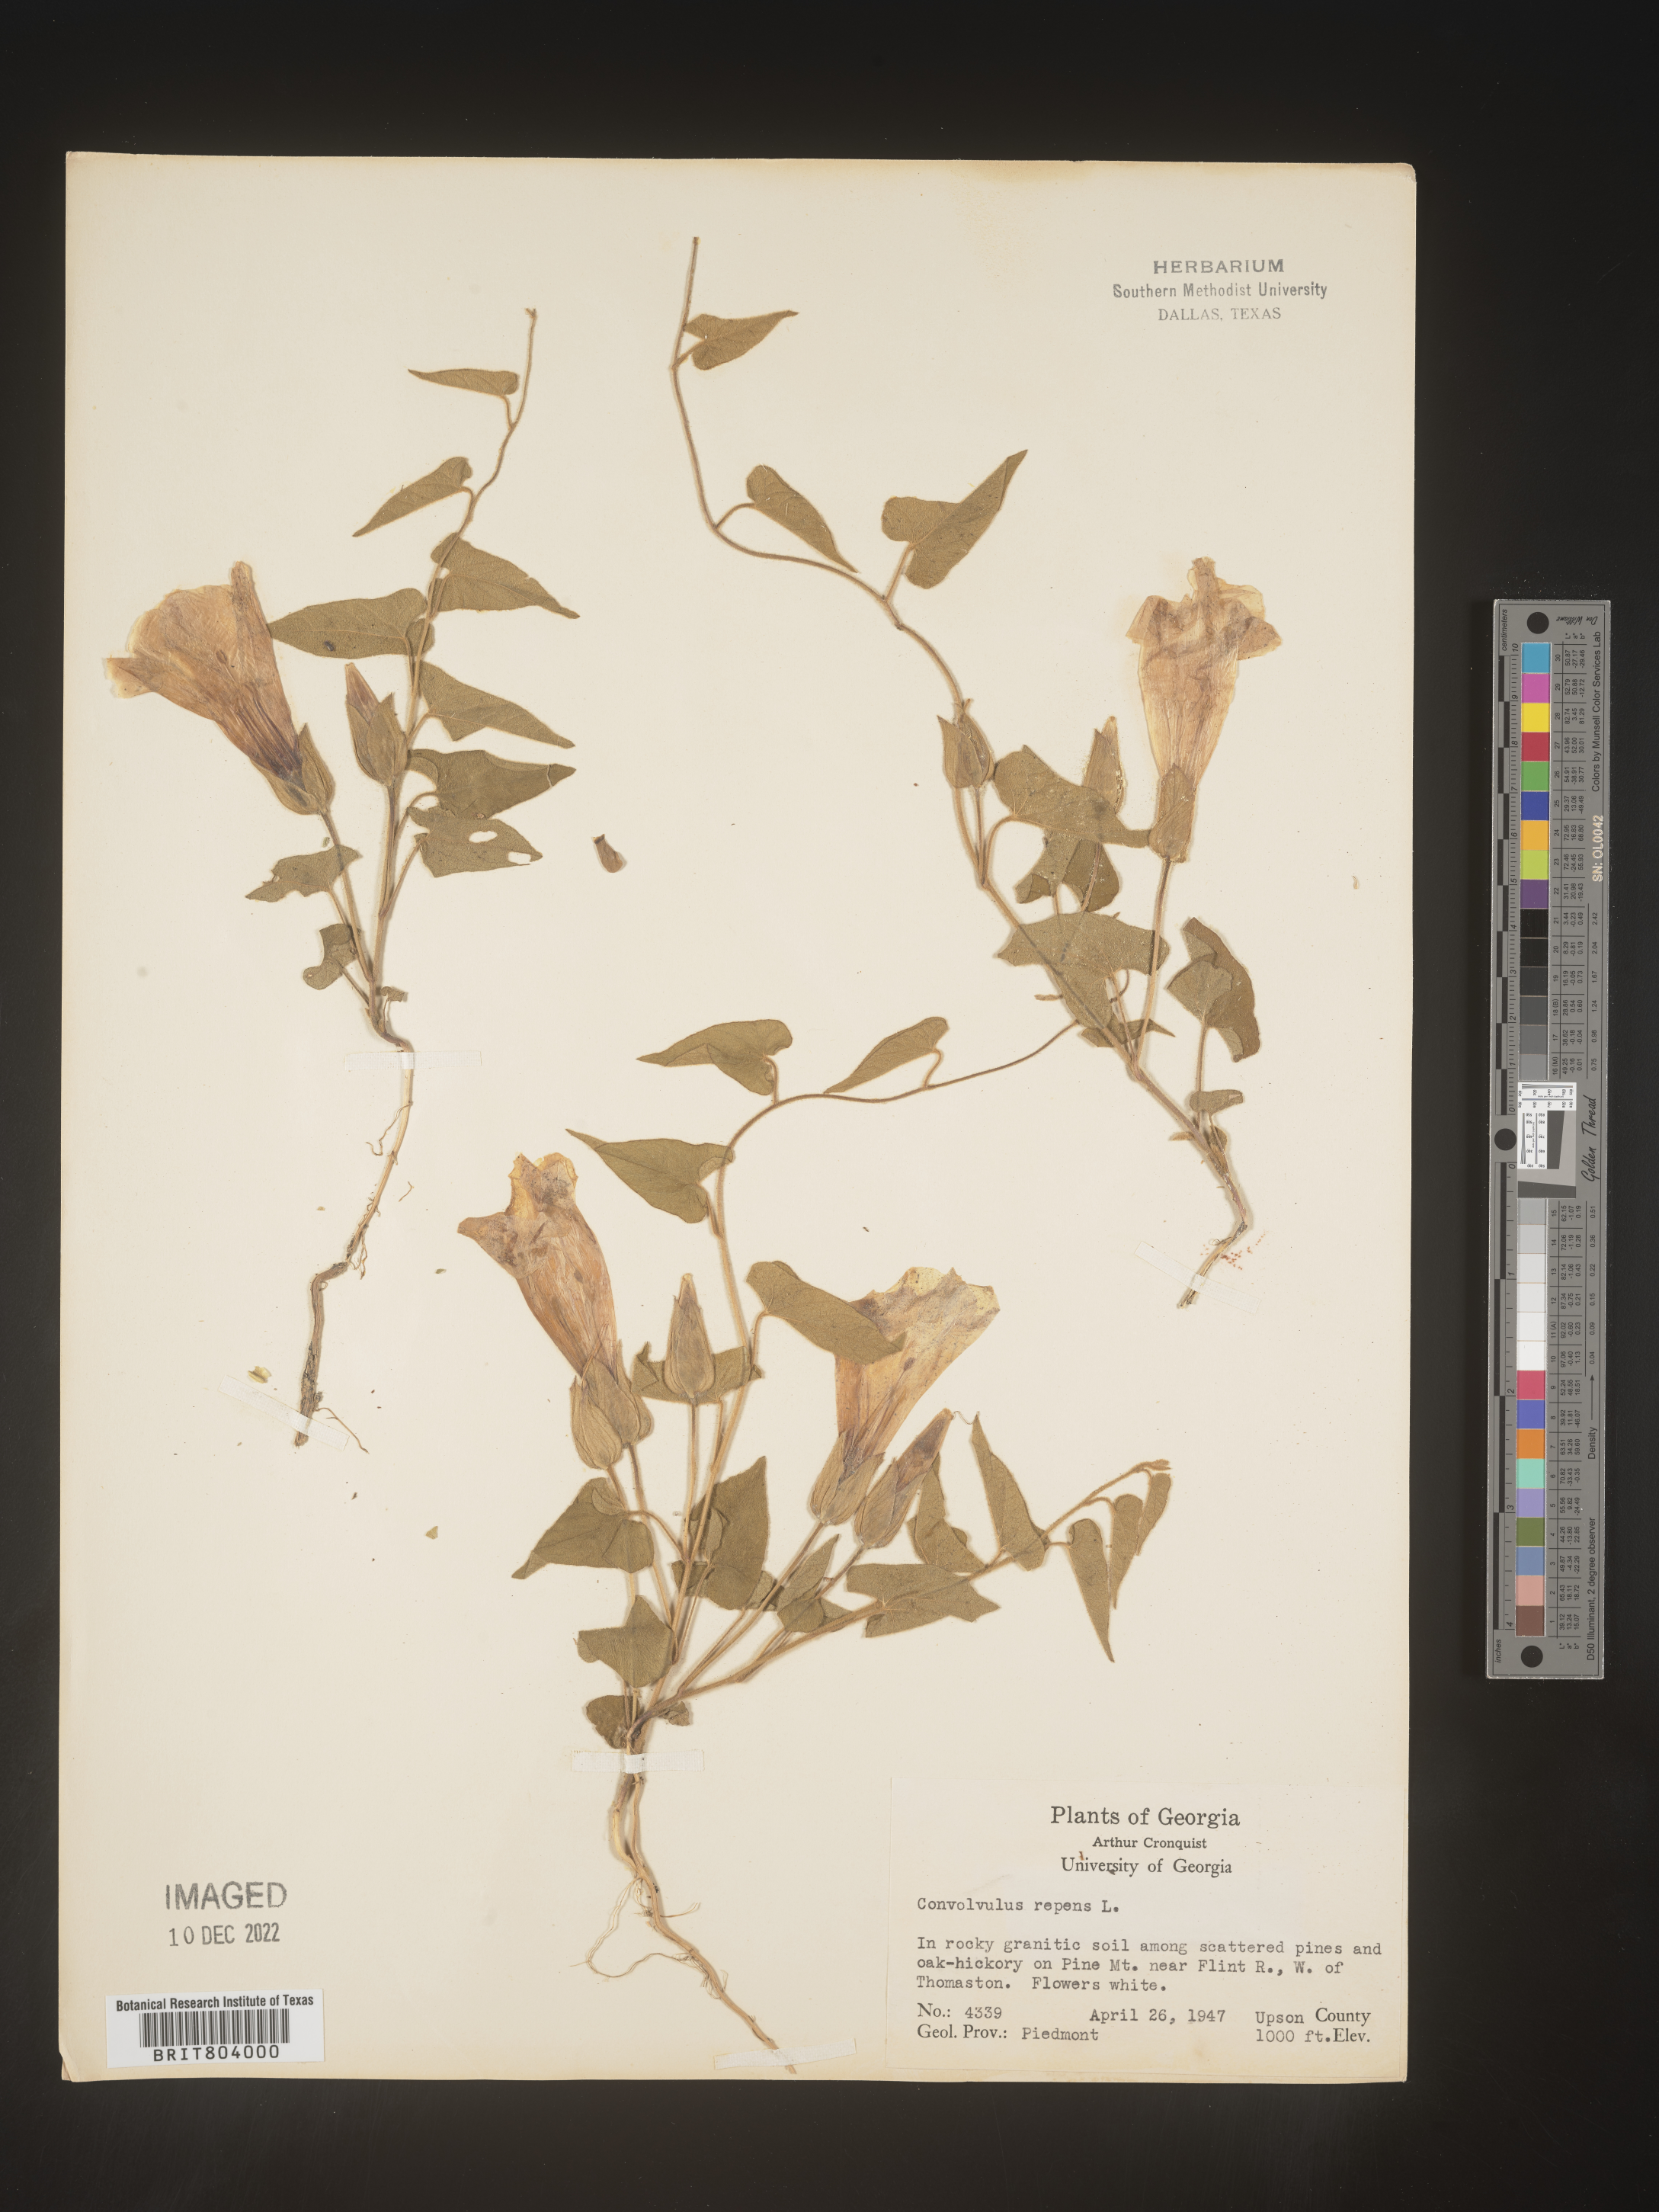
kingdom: Plantae
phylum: Tracheophyta
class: Magnoliopsida
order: Solanales
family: Convolvulaceae
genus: Calystegia
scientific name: Calystegia
